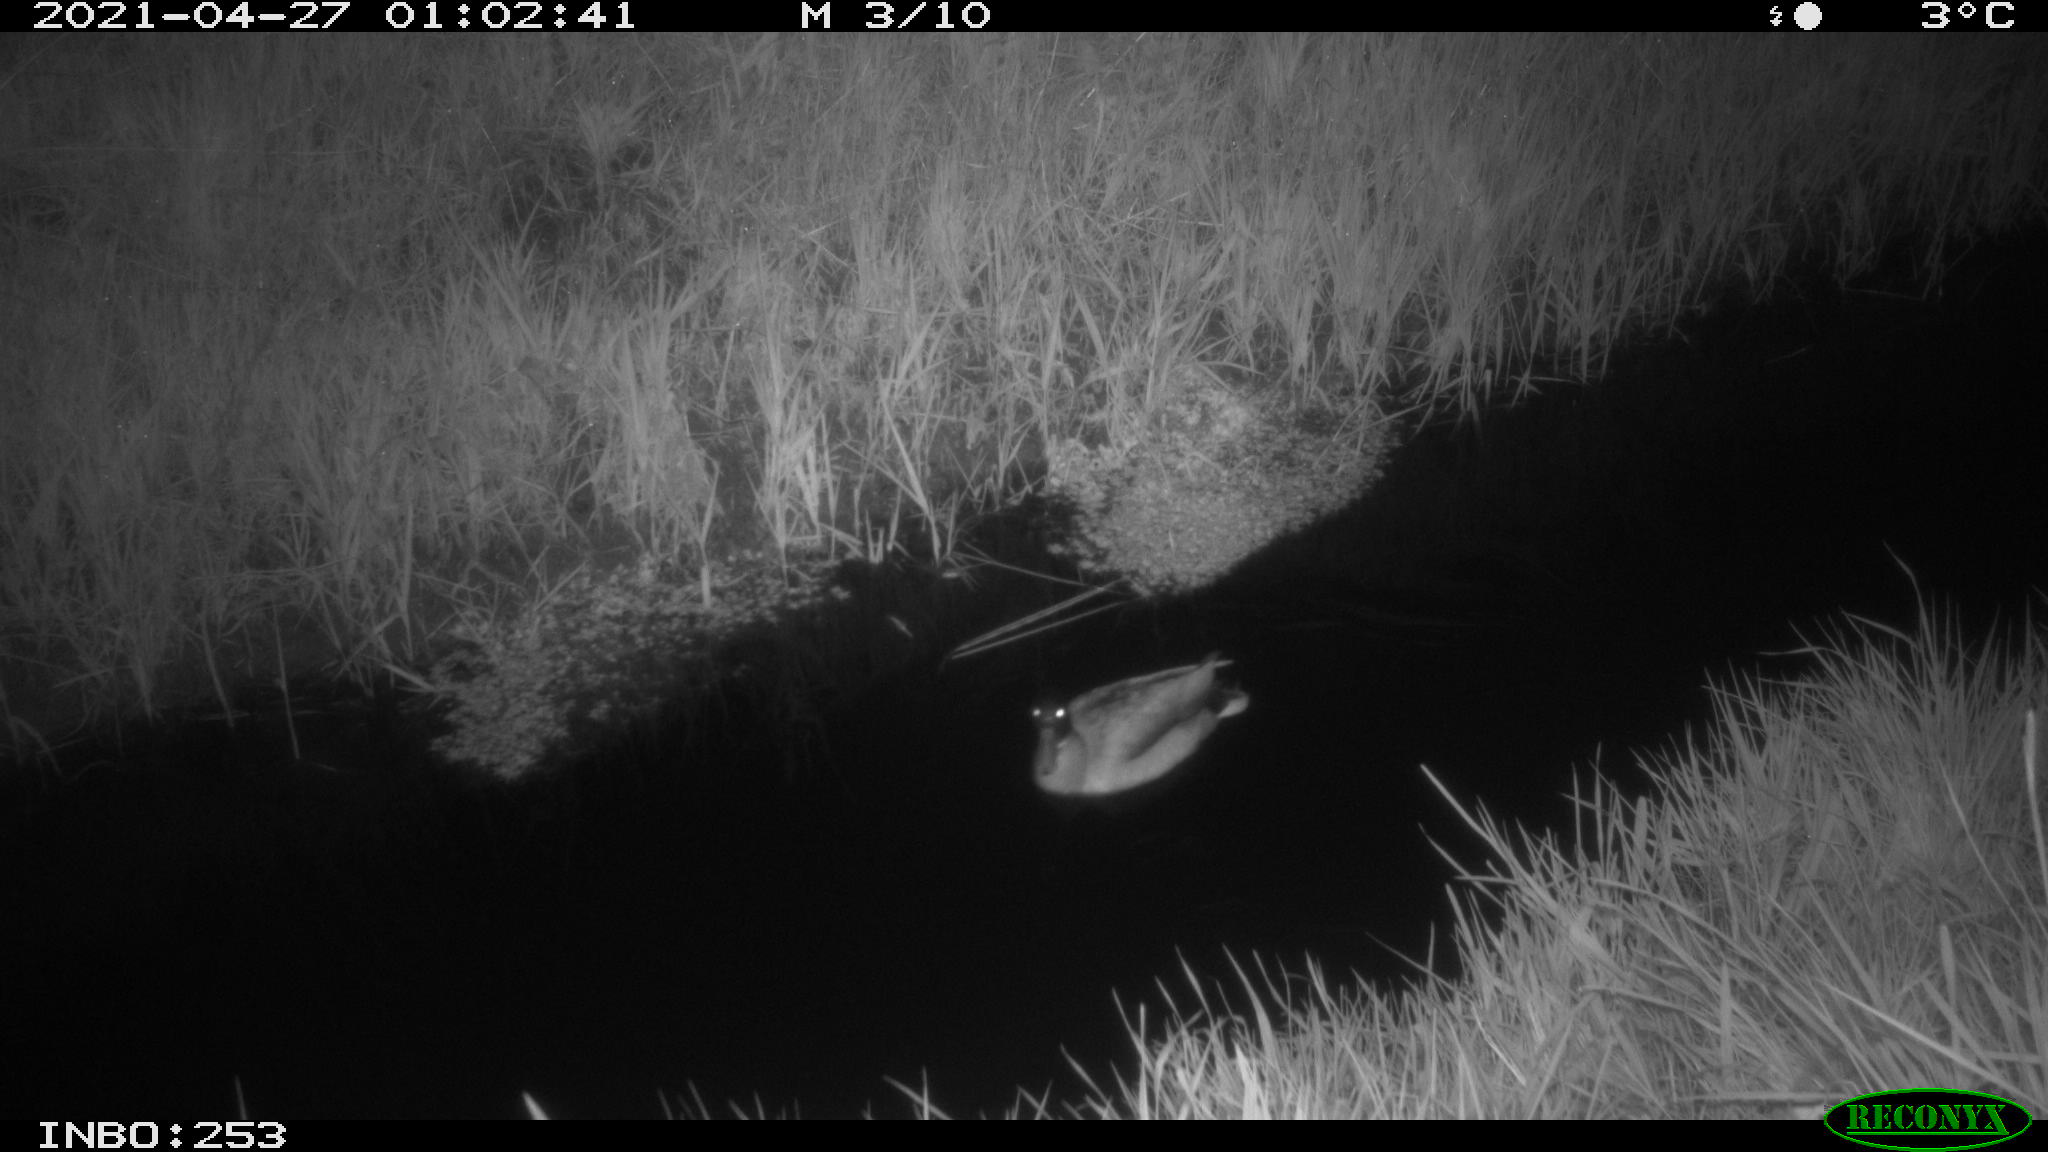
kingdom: Animalia
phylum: Chordata
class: Aves
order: Anseriformes
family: Anatidae
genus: Anas
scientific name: Anas platyrhynchos
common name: Mallard
